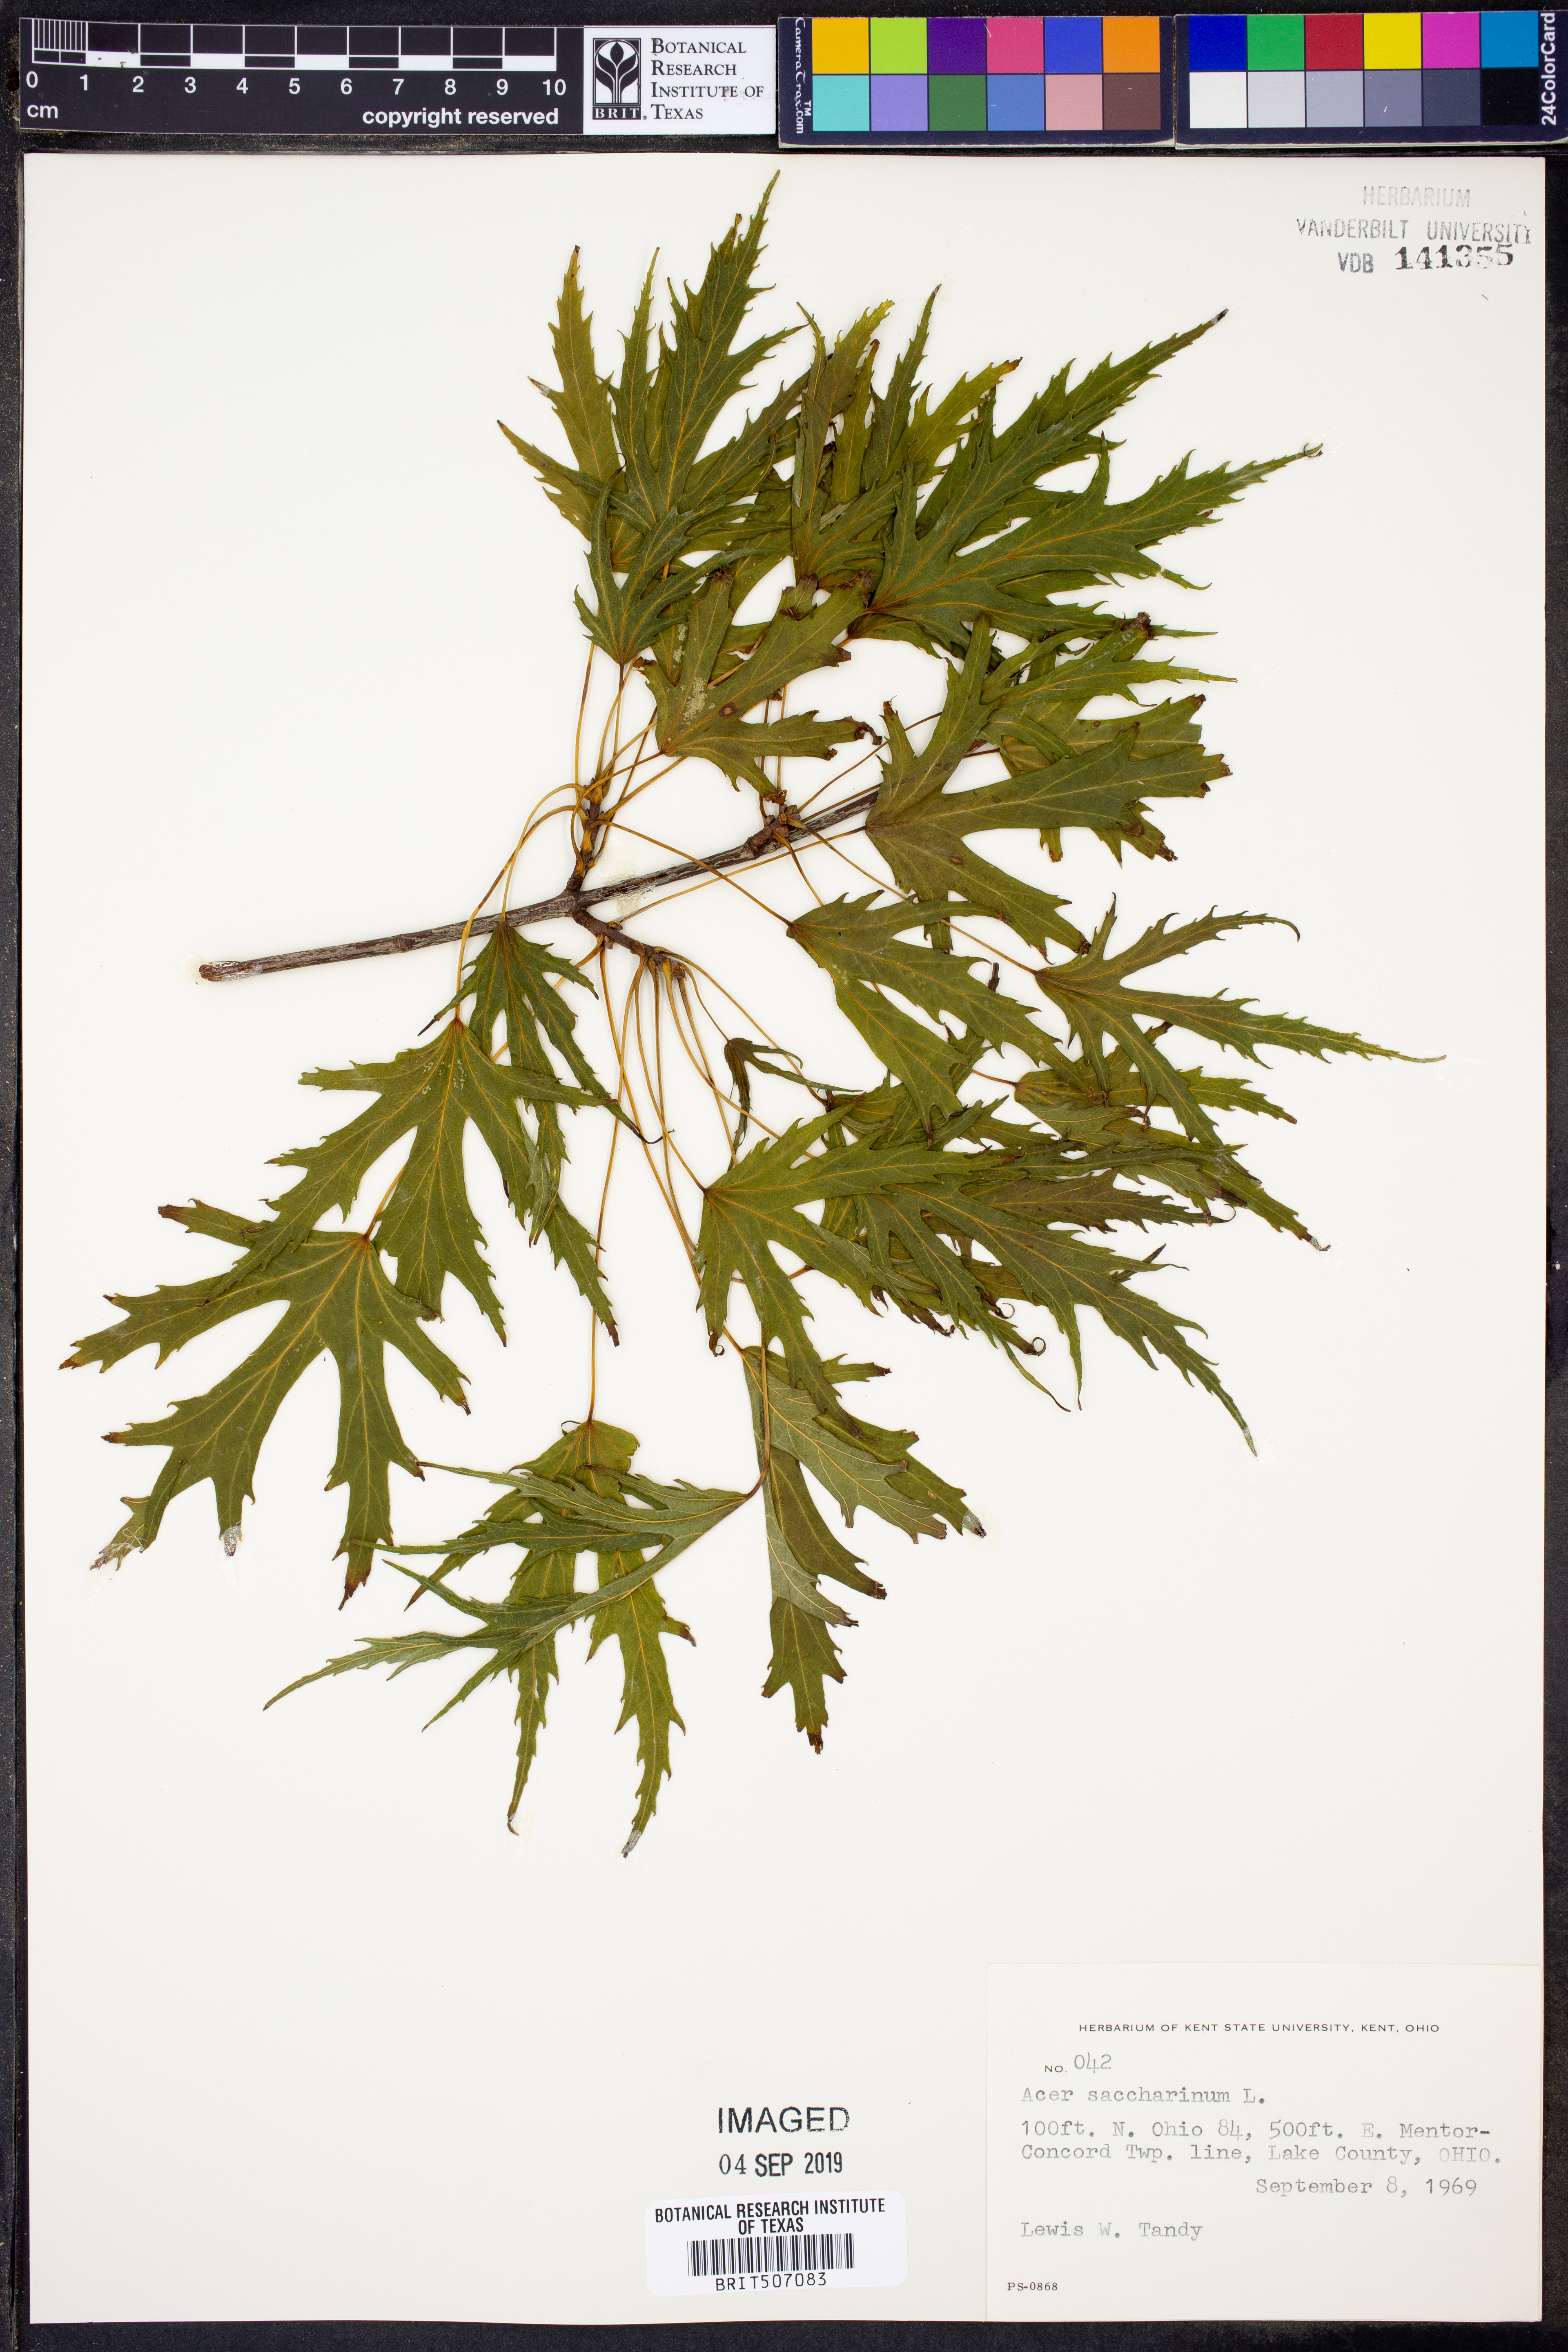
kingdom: Plantae
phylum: Tracheophyta
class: Magnoliopsida
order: Sapindales
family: Sapindaceae
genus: Acer
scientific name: Acer saccharinum
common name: Silver maple
